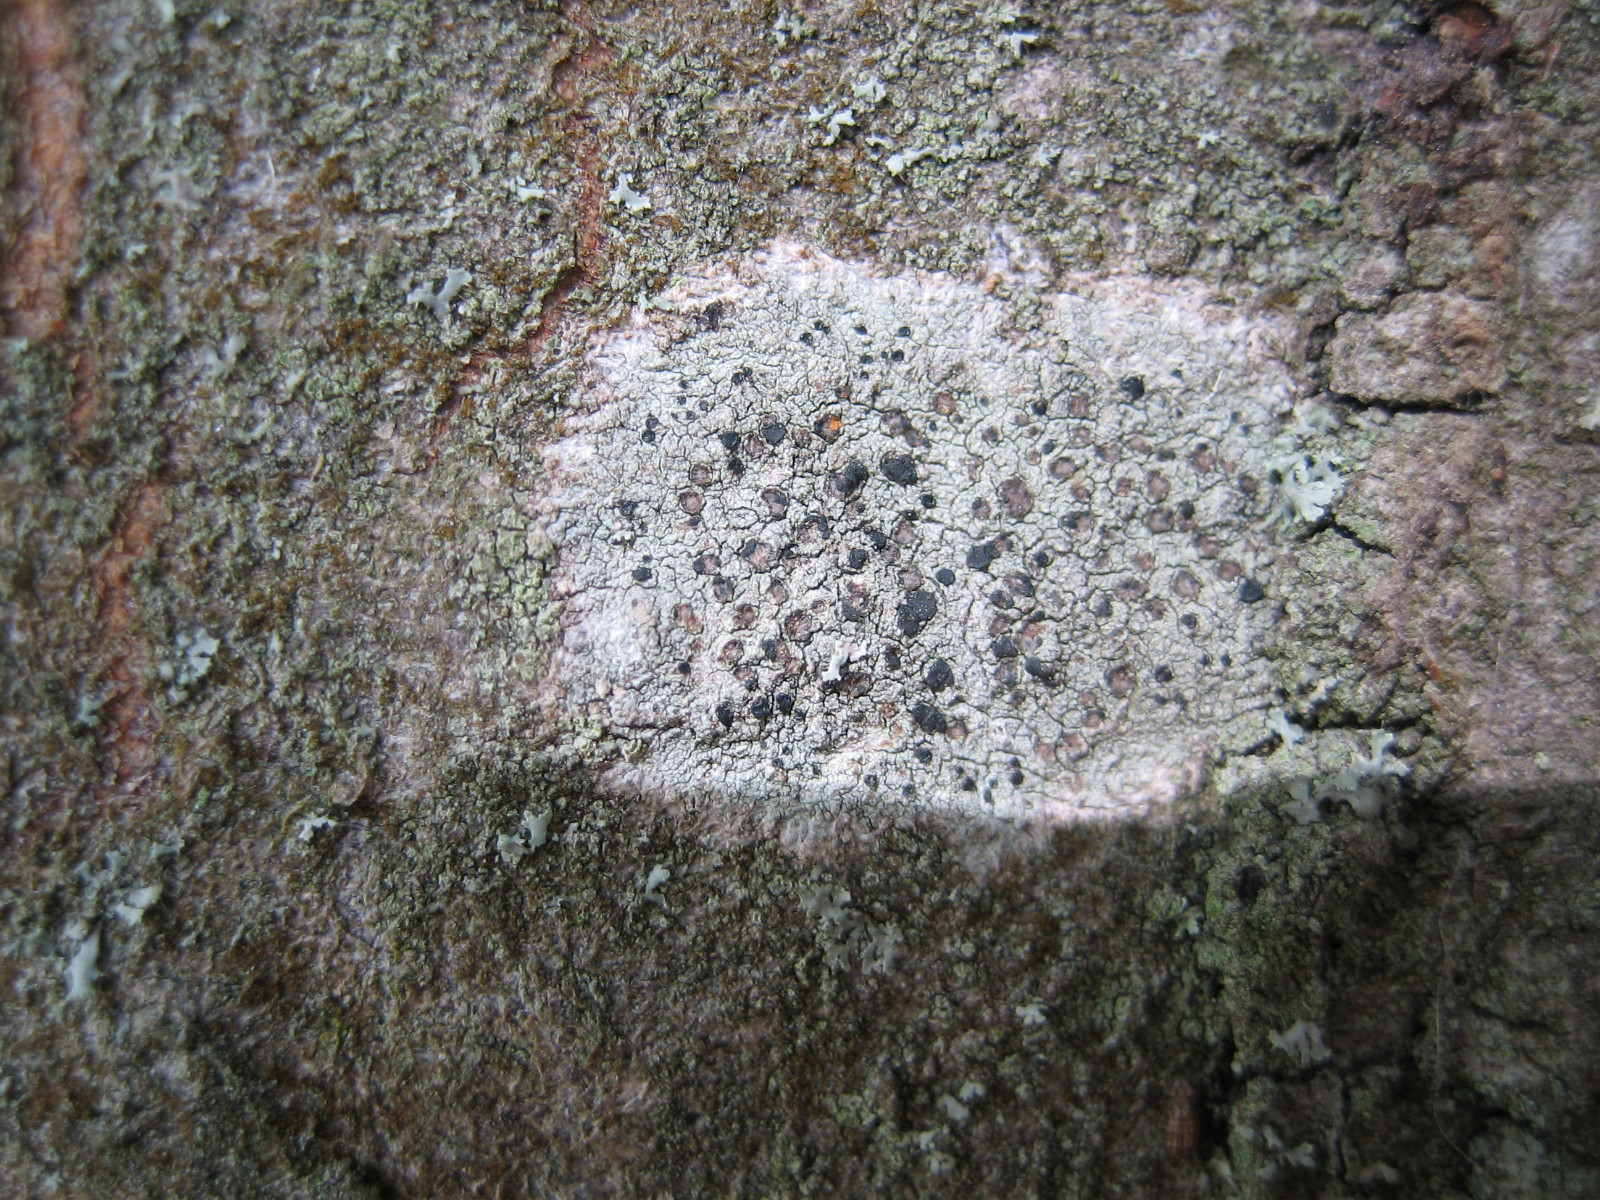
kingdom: Fungi
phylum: Ascomycota
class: Lecanoromycetes
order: Lecanorales
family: Lecanoraceae
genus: Lecidella
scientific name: Lecidella elaeochroma
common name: grågrøn skivelav
